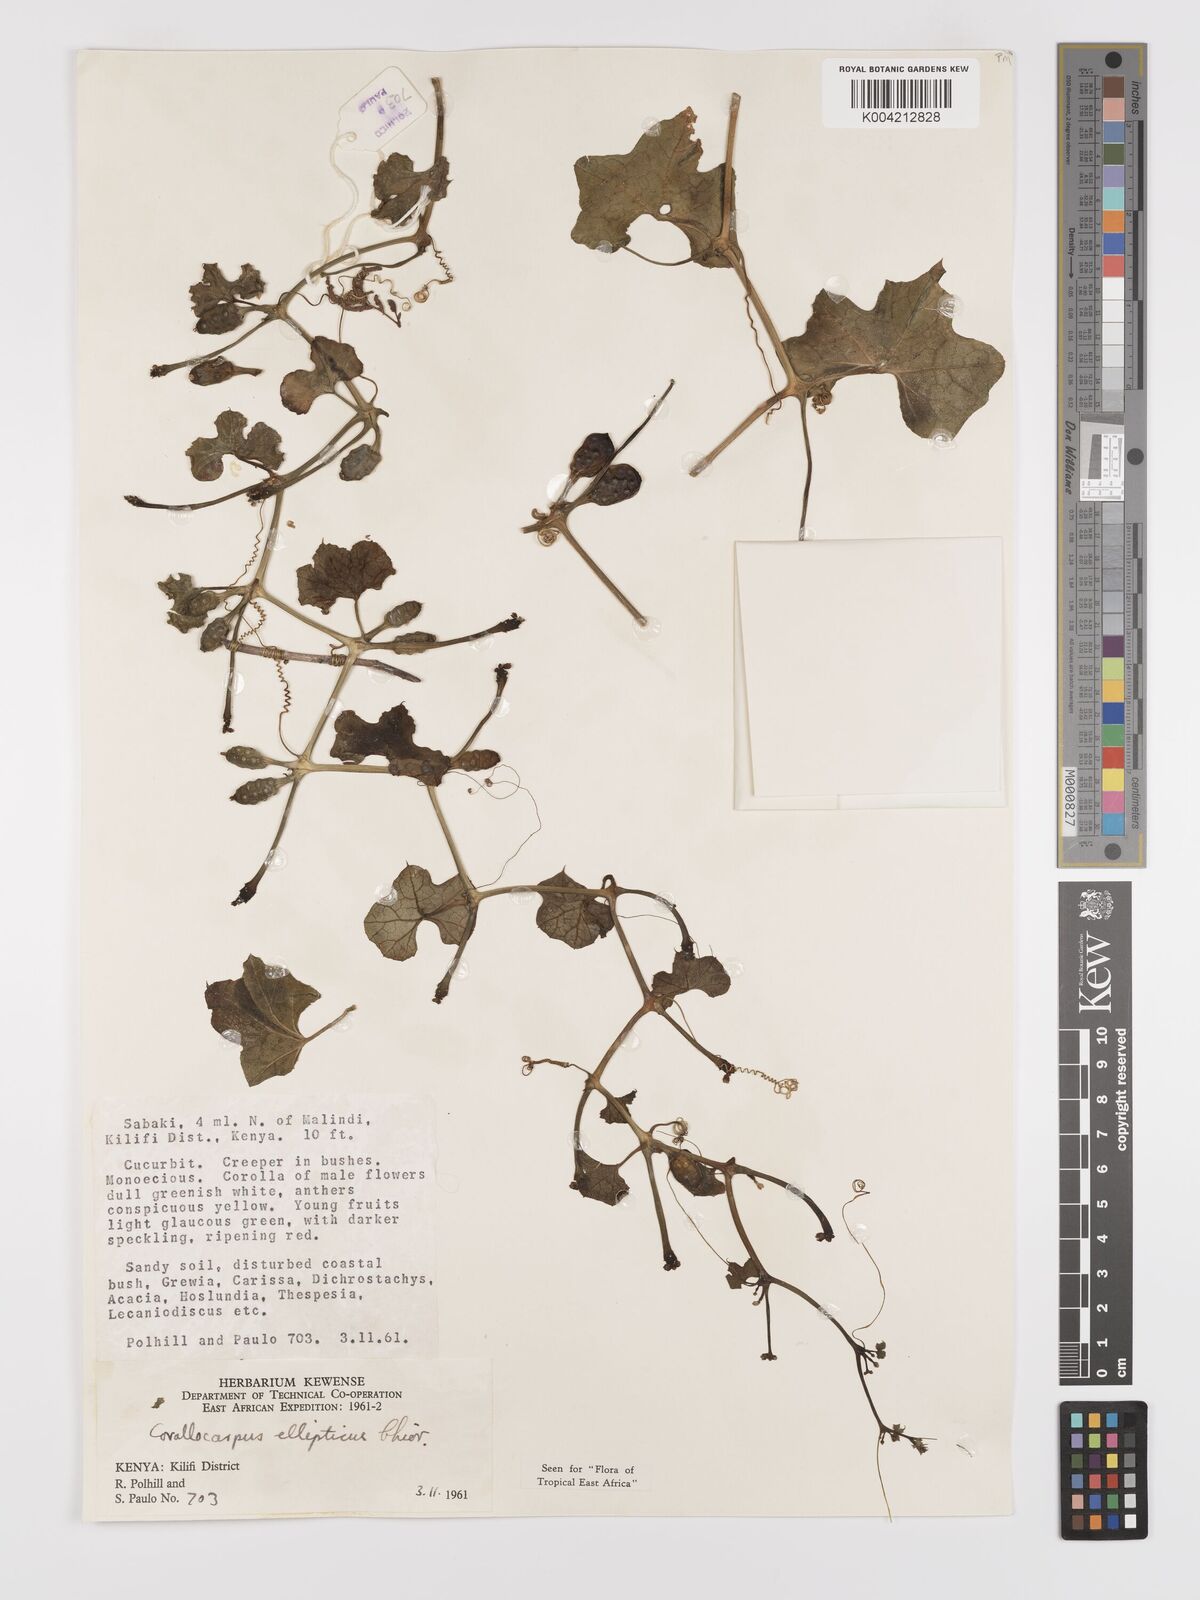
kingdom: Plantae
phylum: Tracheophyta
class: Magnoliopsida
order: Cucurbitales
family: Cucurbitaceae
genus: Corallocarpus
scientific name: Corallocarpus ellipticus
